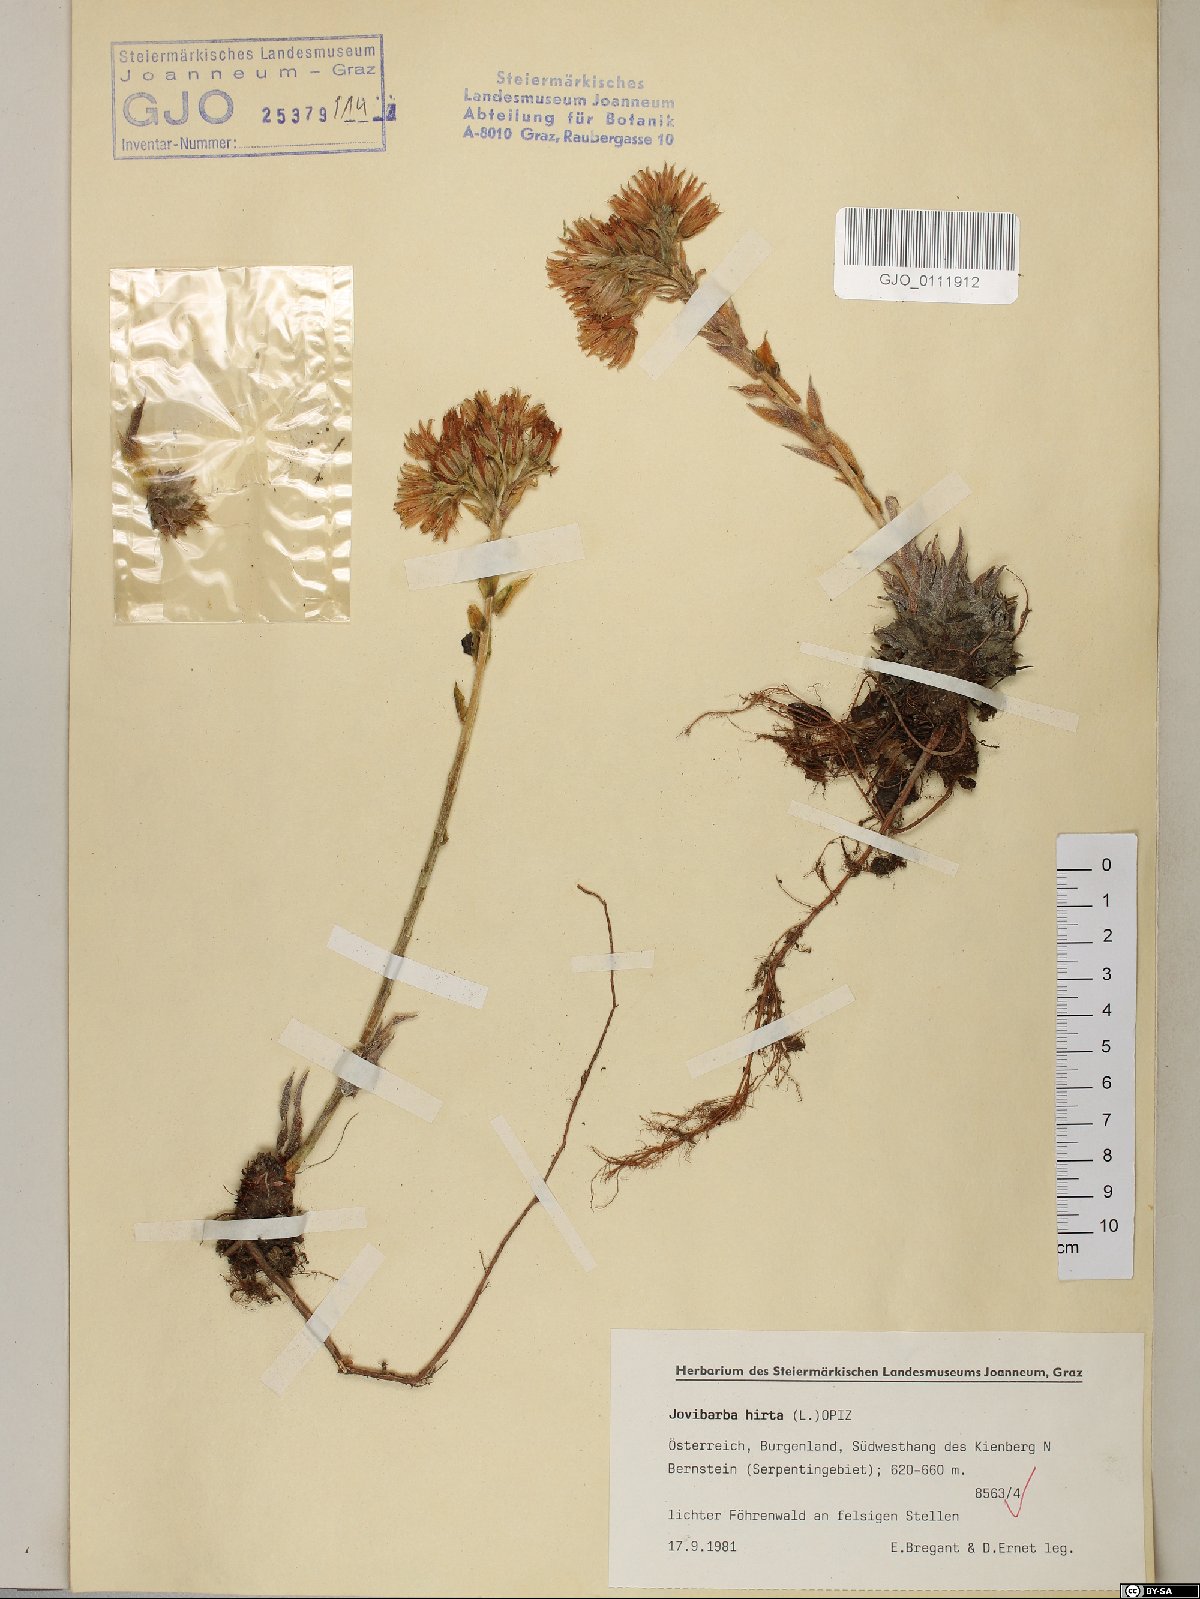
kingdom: Plantae
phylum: Tracheophyta
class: Magnoliopsida
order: Saxifragales
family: Crassulaceae
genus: Sempervivum
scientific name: Sempervivum globiferum
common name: Rolling hen-and-chicks
